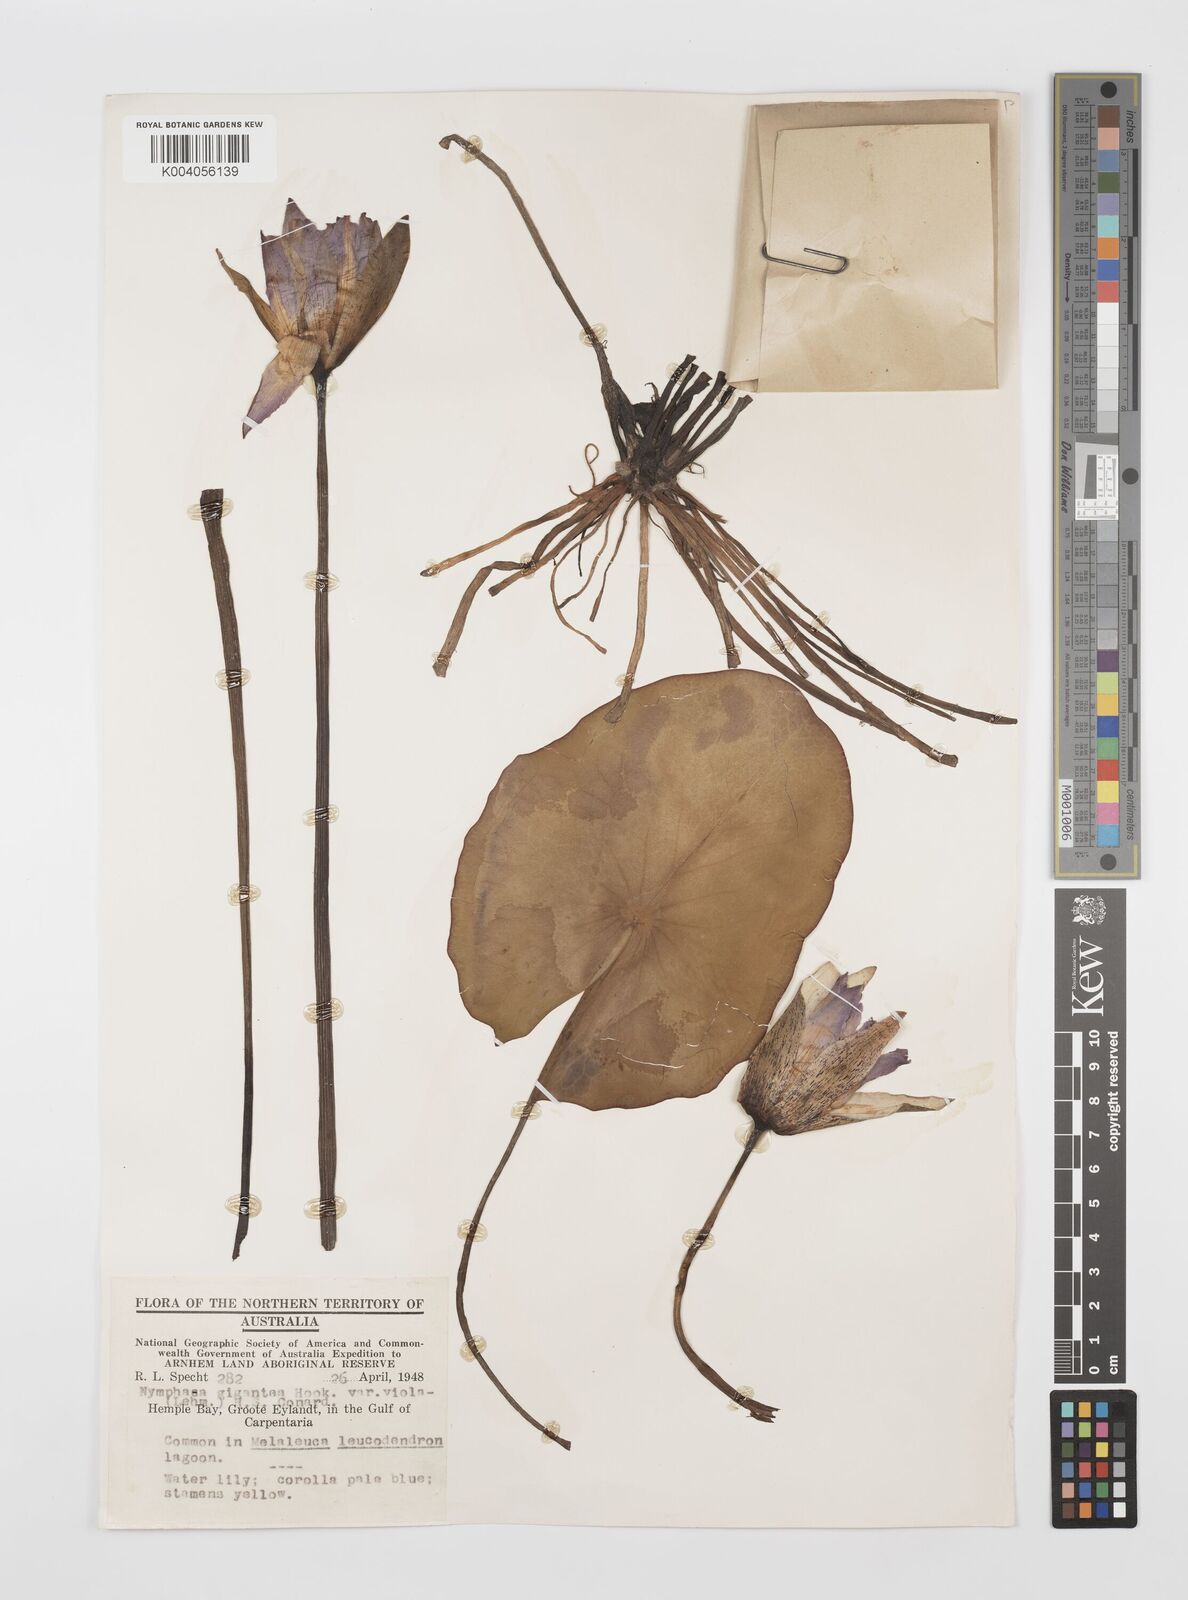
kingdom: Plantae
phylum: Tracheophyta
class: Magnoliopsida
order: Nymphaeales
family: Nymphaeaceae
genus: Nymphaea
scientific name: Nymphaea gigantea
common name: Giant water-lily
